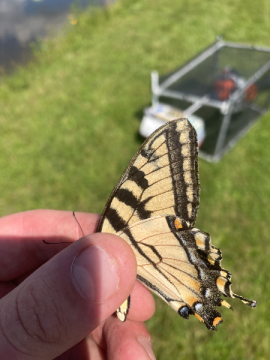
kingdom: Animalia
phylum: Arthropoda
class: Insecta
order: Lepidoptera
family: Papilionidae
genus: Pterourus
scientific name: Pterourus canadensis
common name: Canadian Tiger Swallowtail
